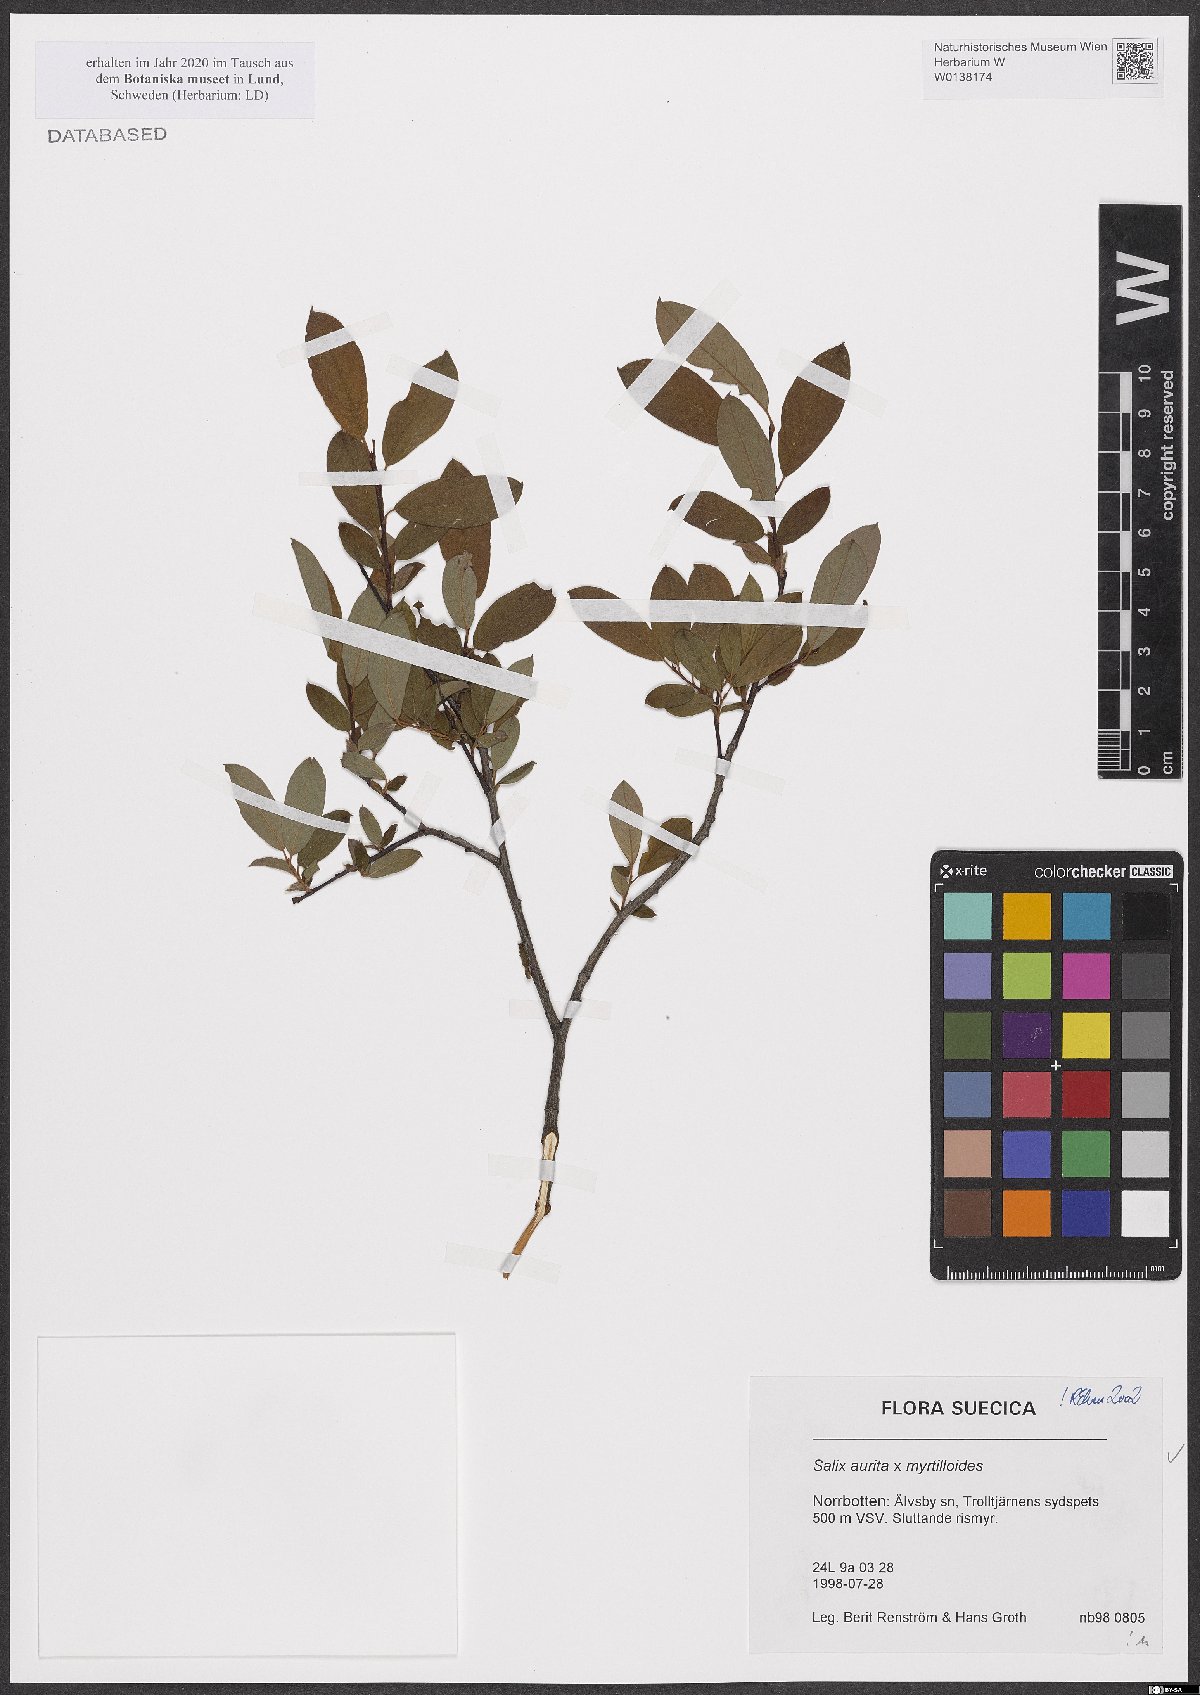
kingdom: Plantae
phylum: Tracheophyta
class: Magnoliopsida
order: Malpighiales
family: Salicaceae
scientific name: Salicaceae
